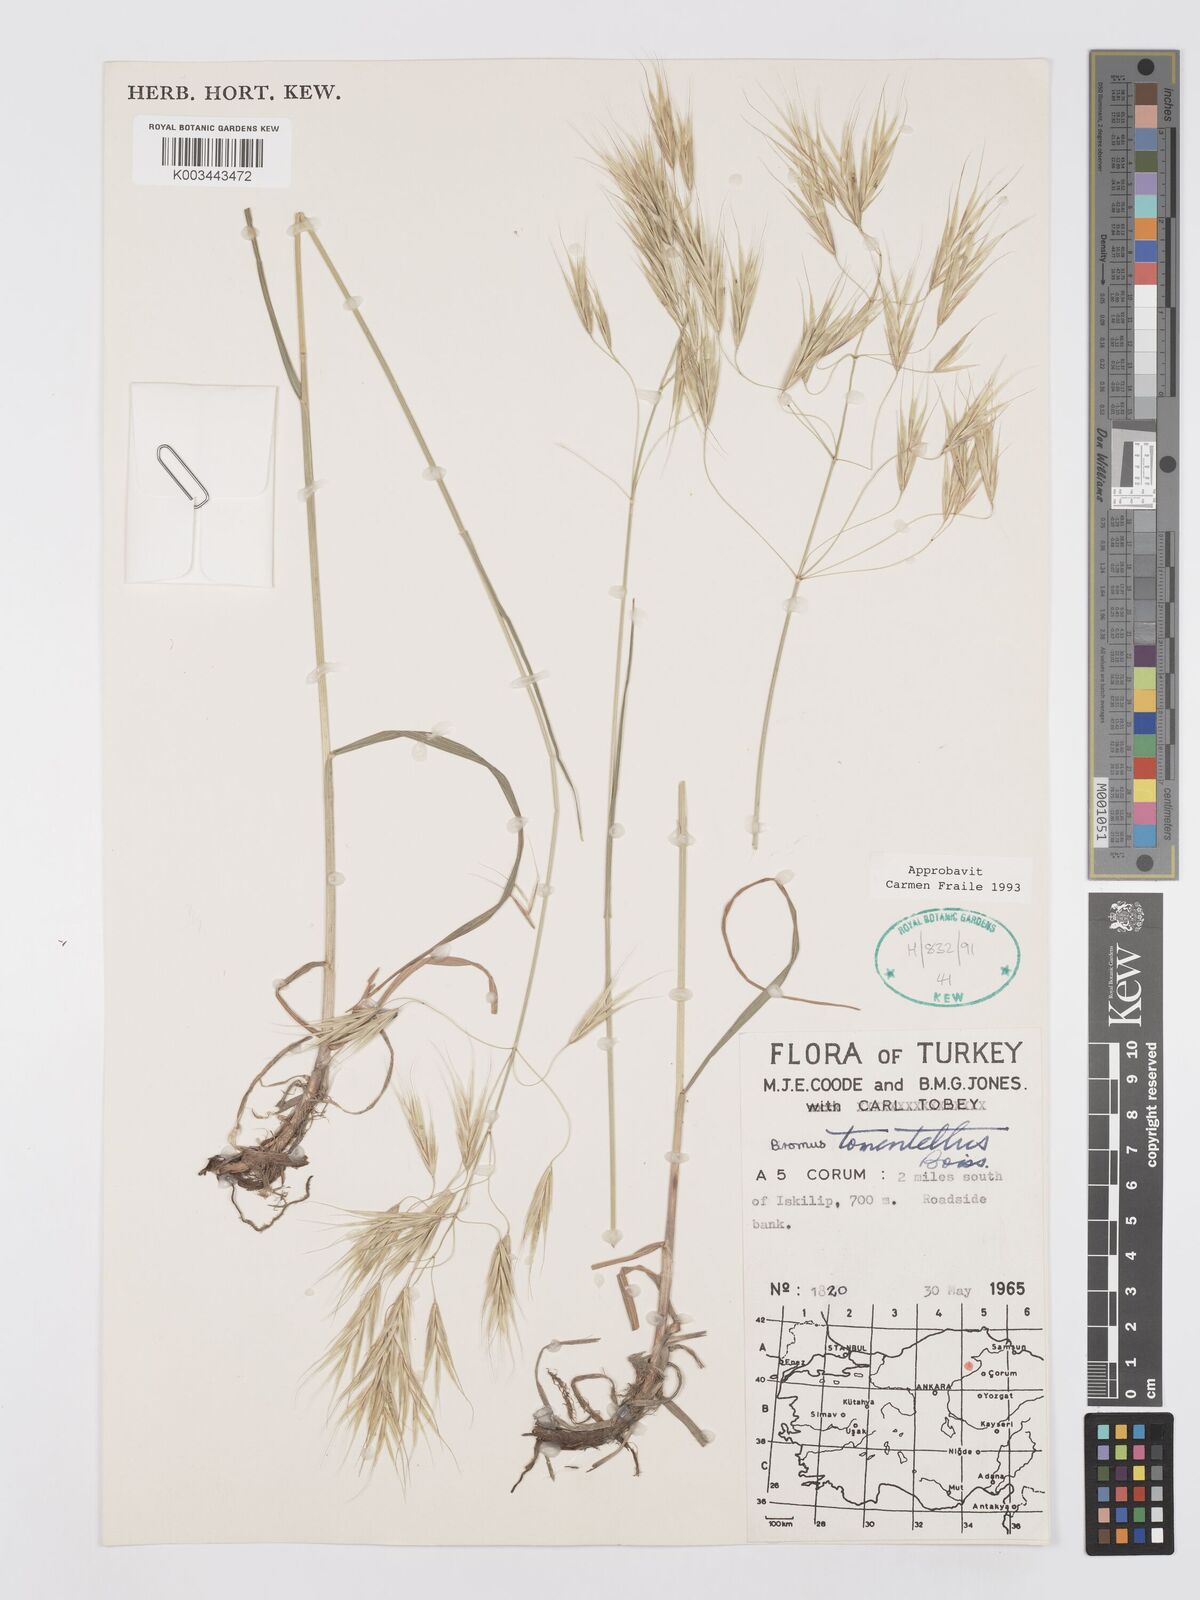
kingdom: Plantae
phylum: Tracheophyta
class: Liliopsida
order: Poales
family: Poaceae
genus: Bromus
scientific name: Bromus tomentellus
